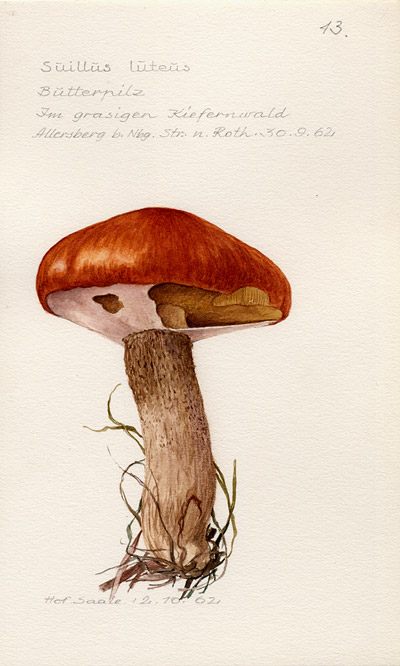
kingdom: Fungi
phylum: Basidiomycota
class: Agaricomycetes
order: Boletales
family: Suillaceae
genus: Suillus
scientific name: Suillus luteus
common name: Slippery jack
